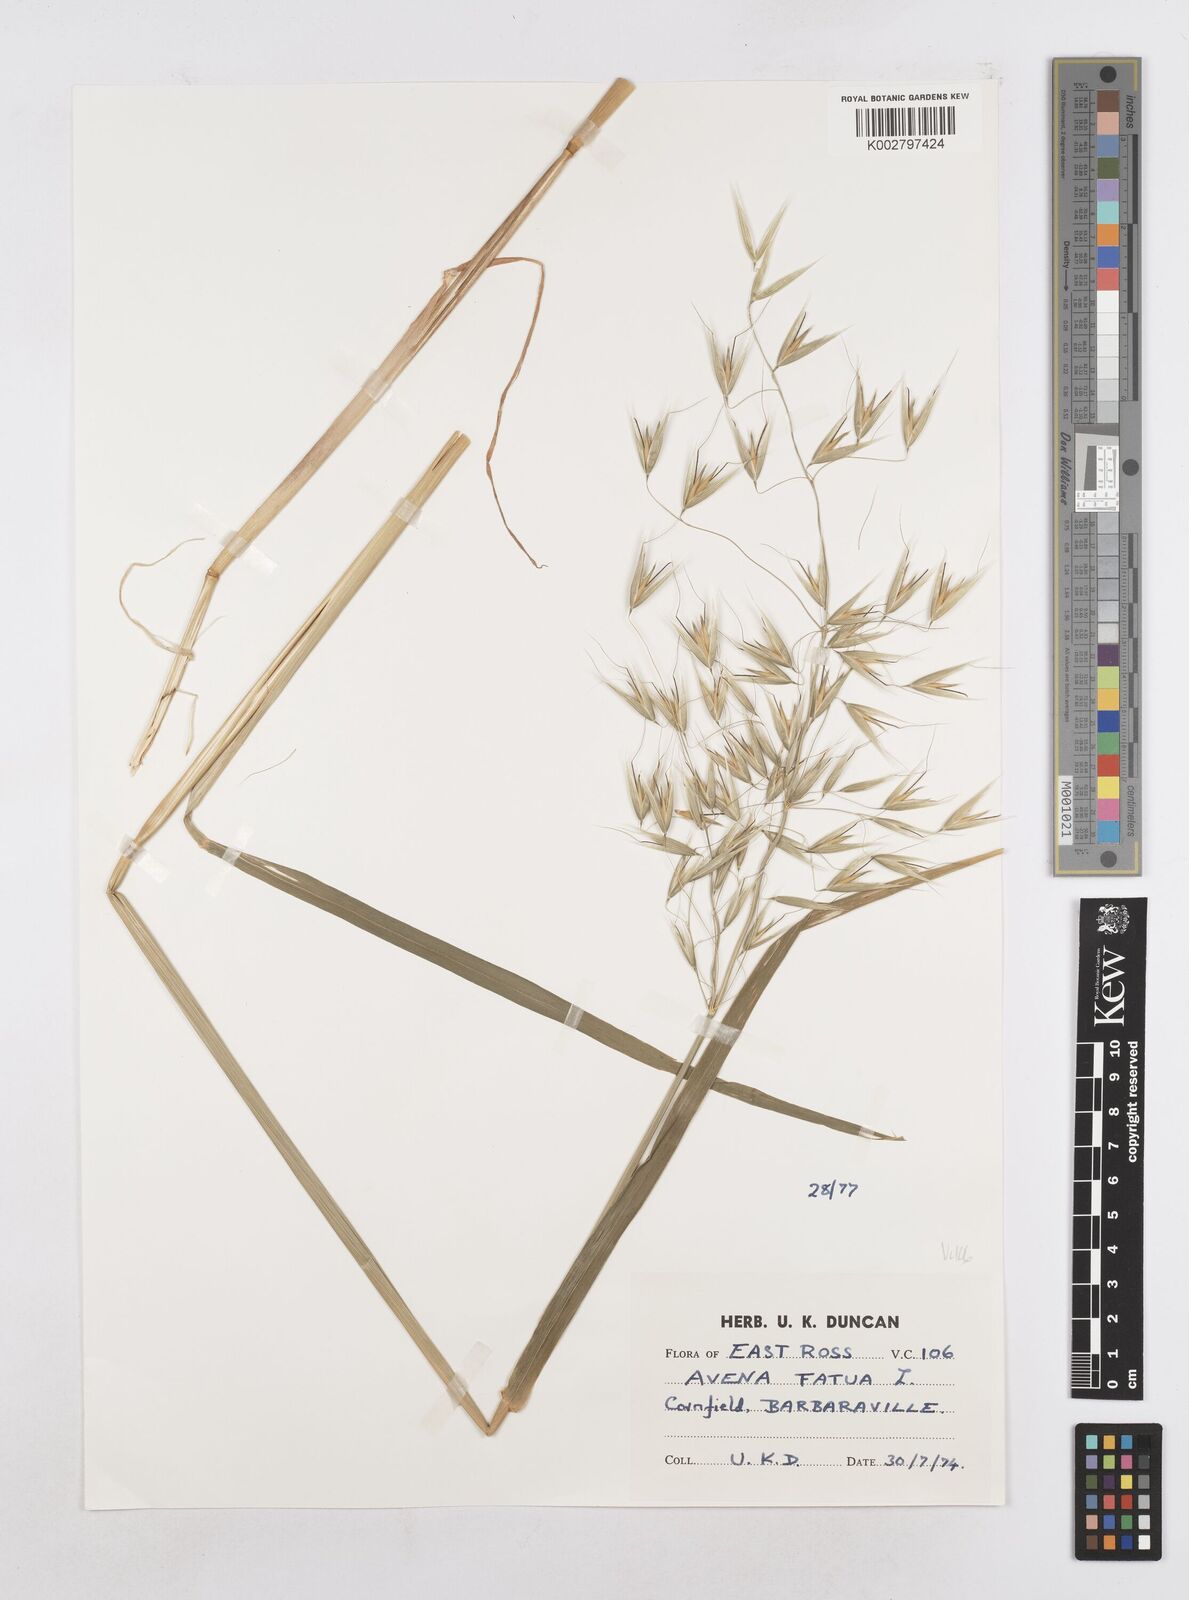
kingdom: Plantae
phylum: Tracheophyta
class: Liliopsida
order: Poales
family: Poaceae
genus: Avena
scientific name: Avena fatua
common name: Wild oat
